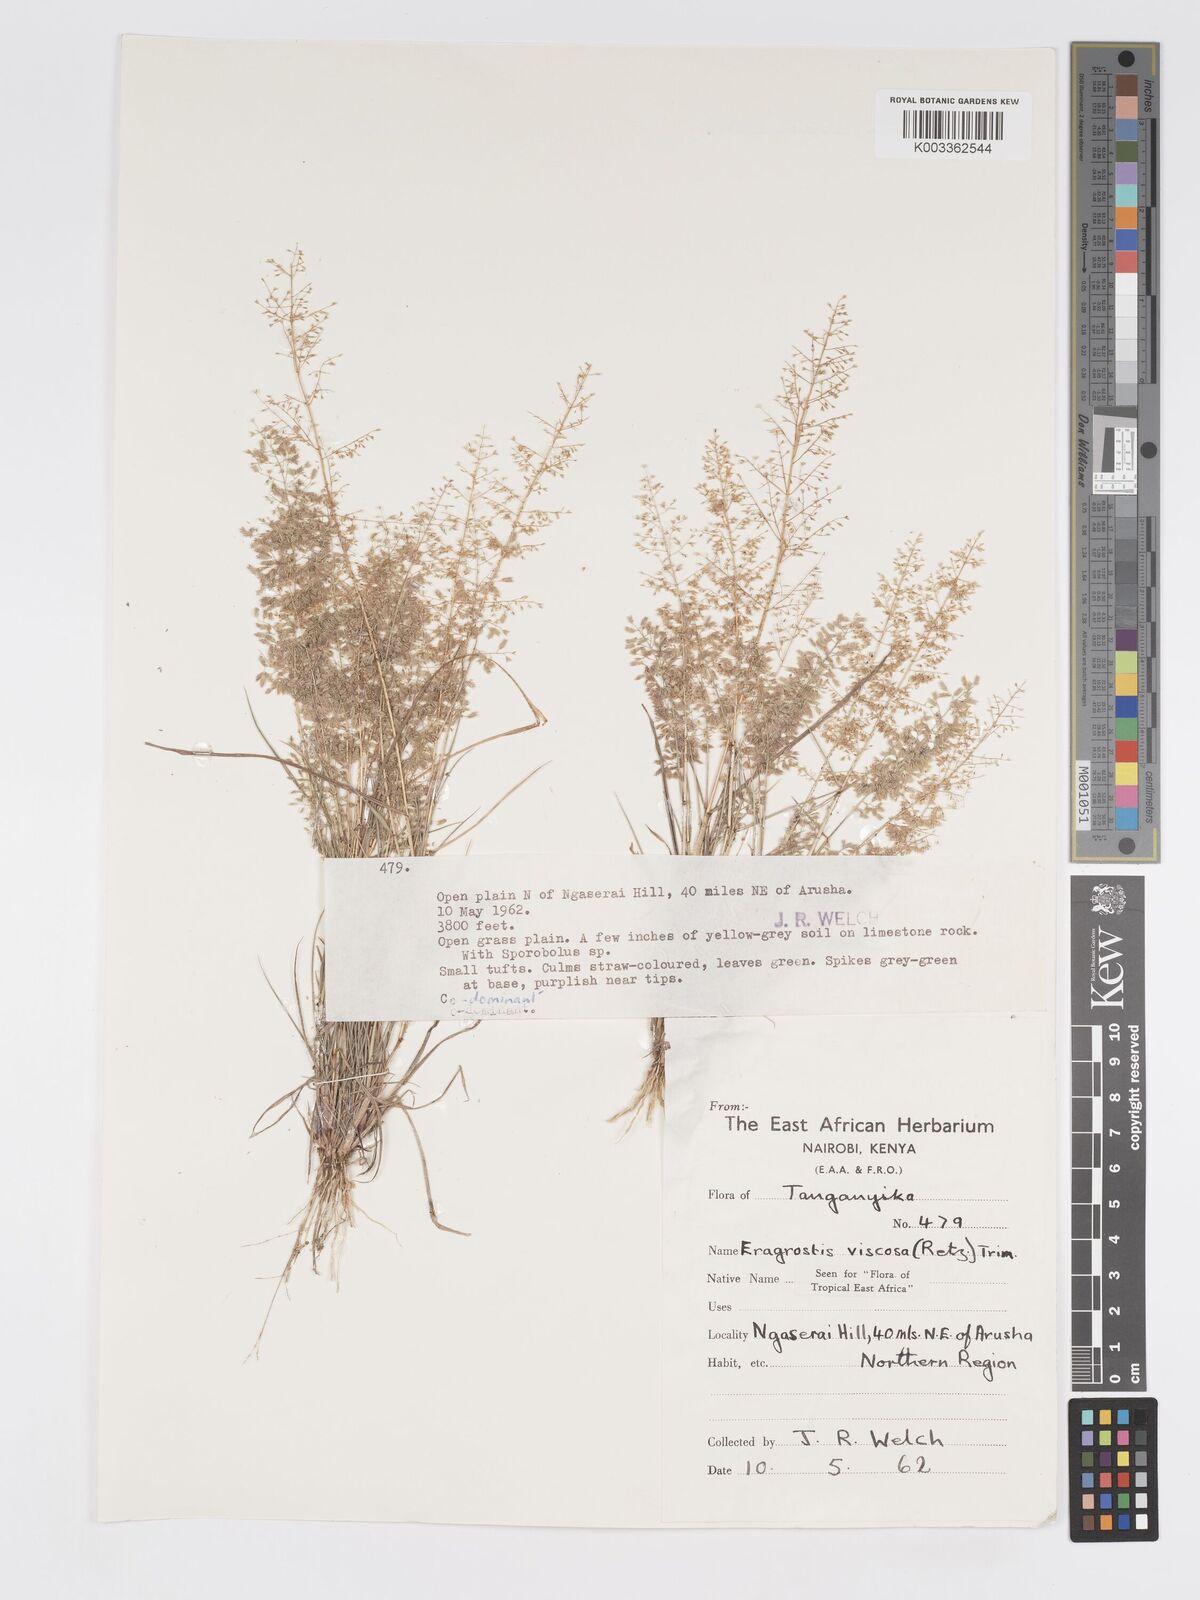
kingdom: Plantae
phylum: Tracheophyta
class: Liliopsida
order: Poales
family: Poaceae
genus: Eragrostis
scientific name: Eragrostis viscosa
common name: Sticky love grass
